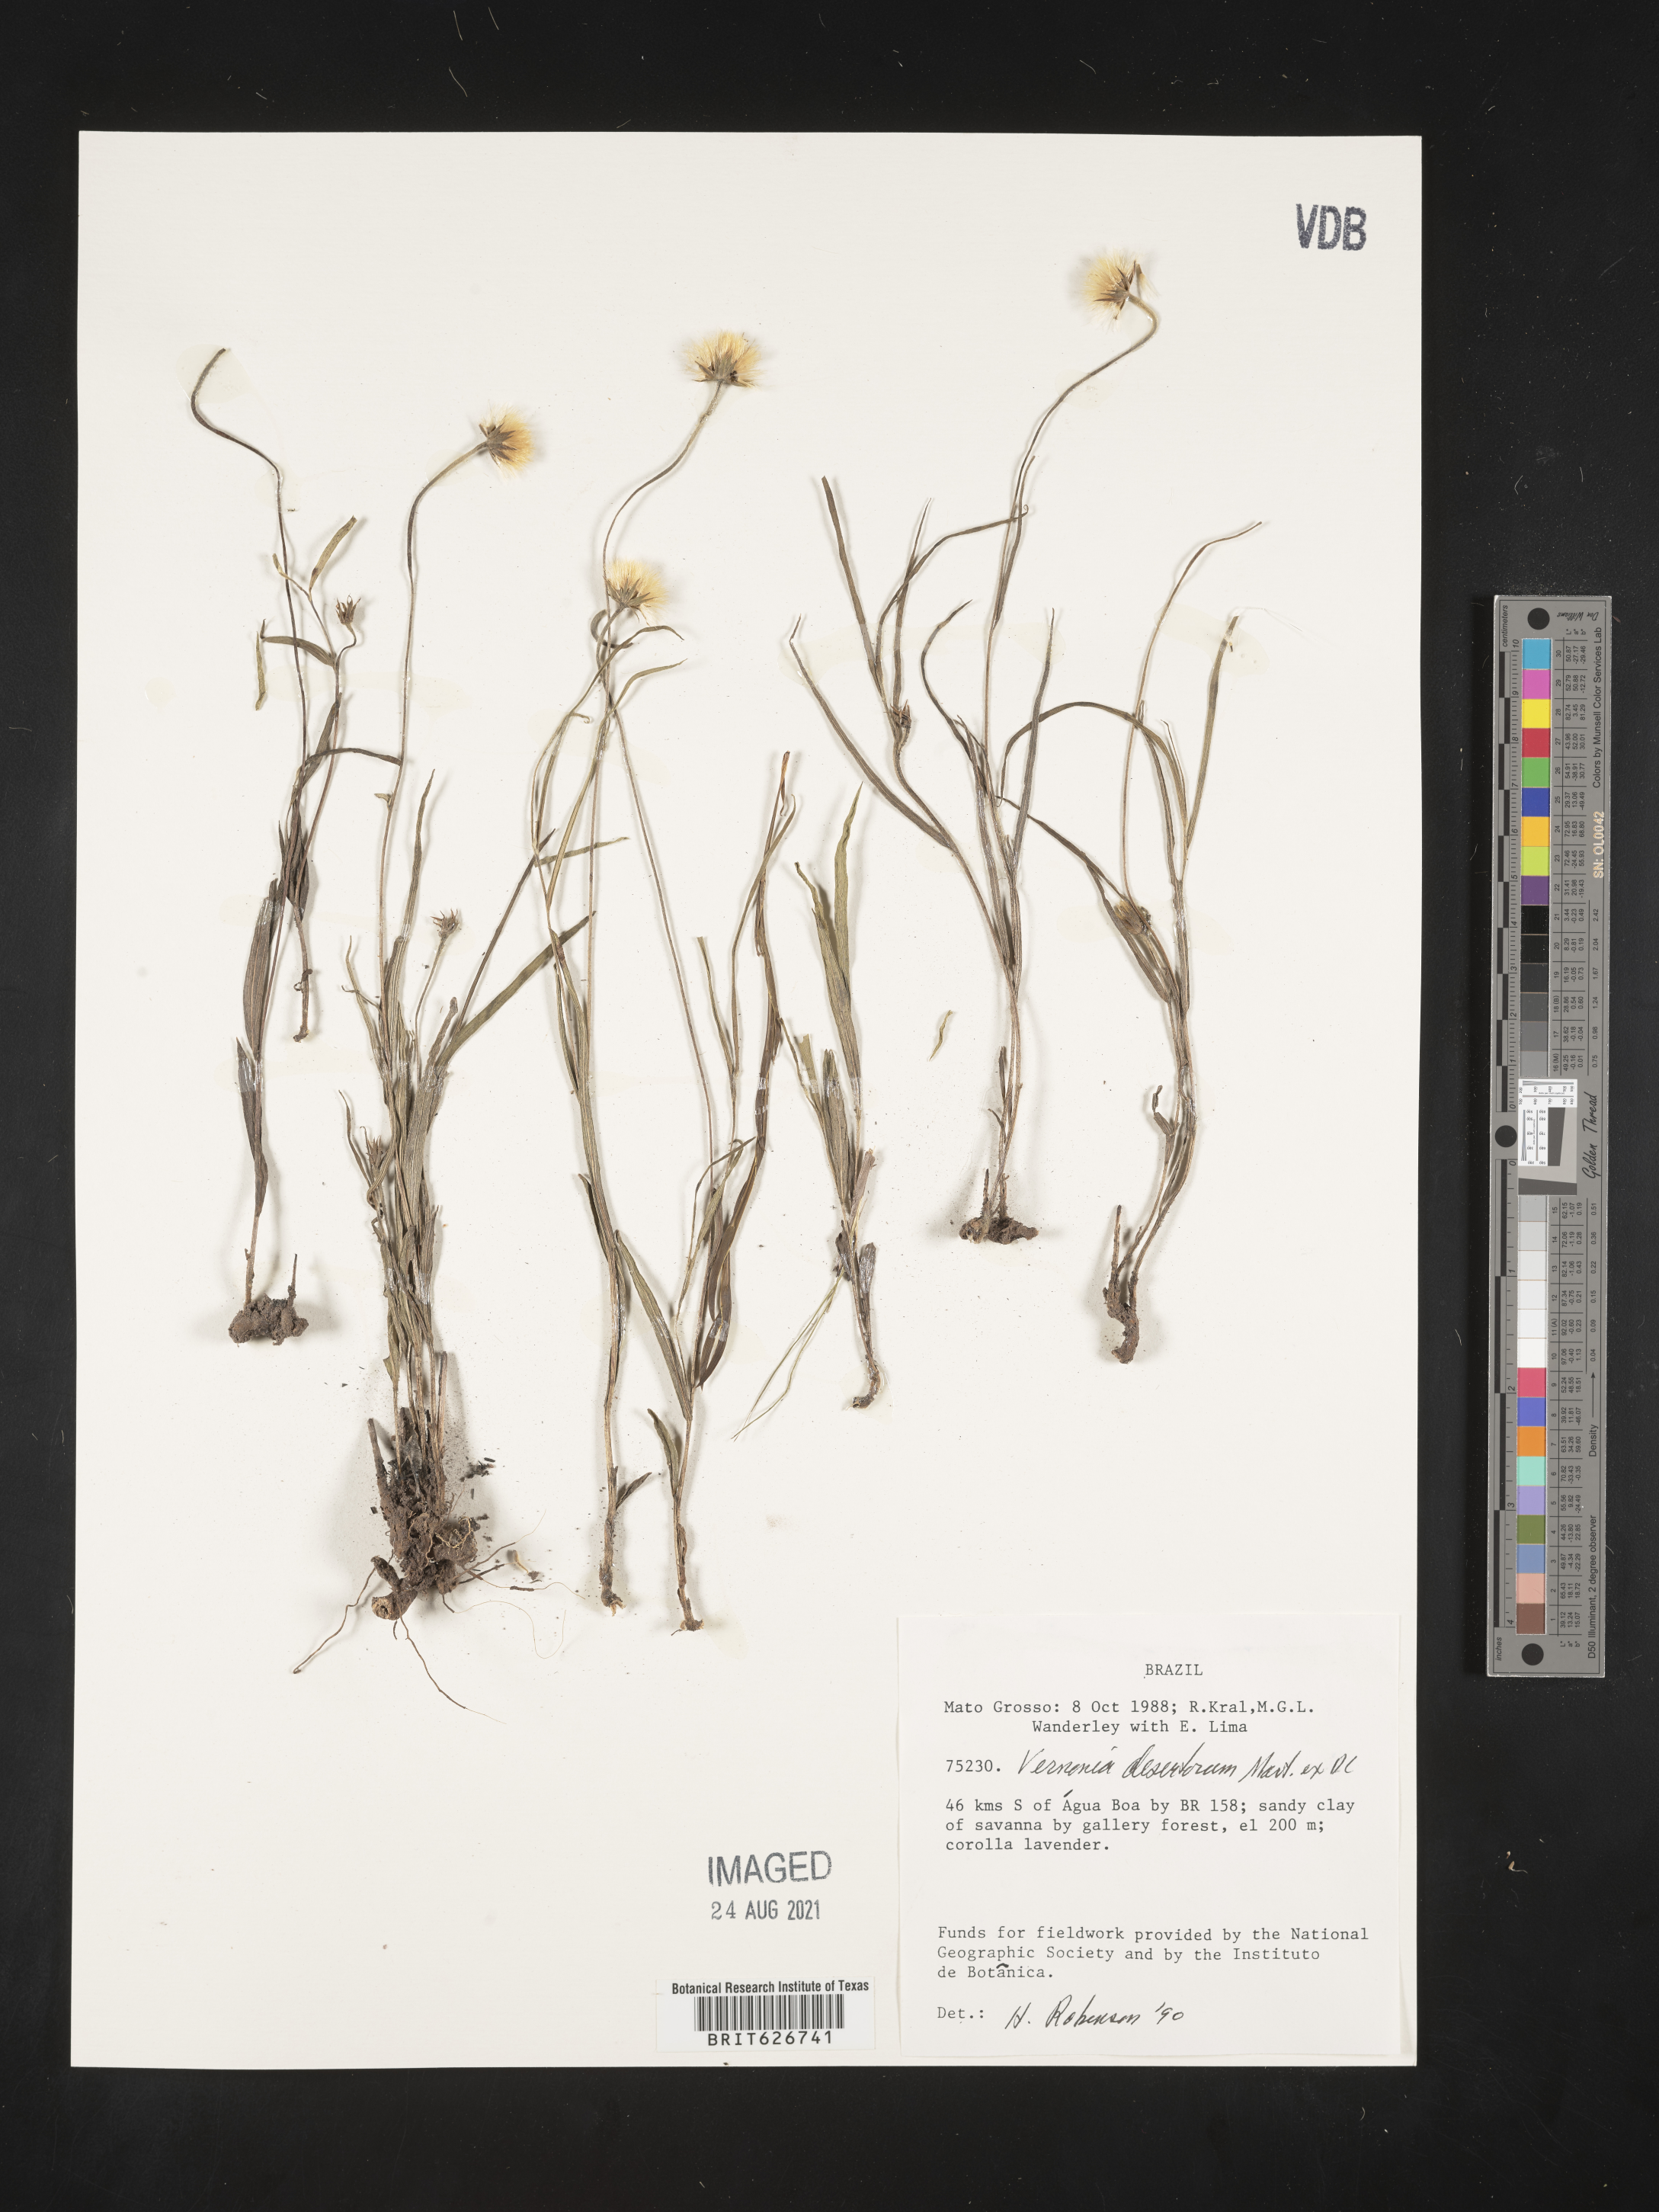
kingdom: Plantae
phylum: Tracheophyta
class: Magnoliopsida
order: Asterales
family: Asteraceae
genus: Chrysolaena
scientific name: Chrysolaena desertorum
